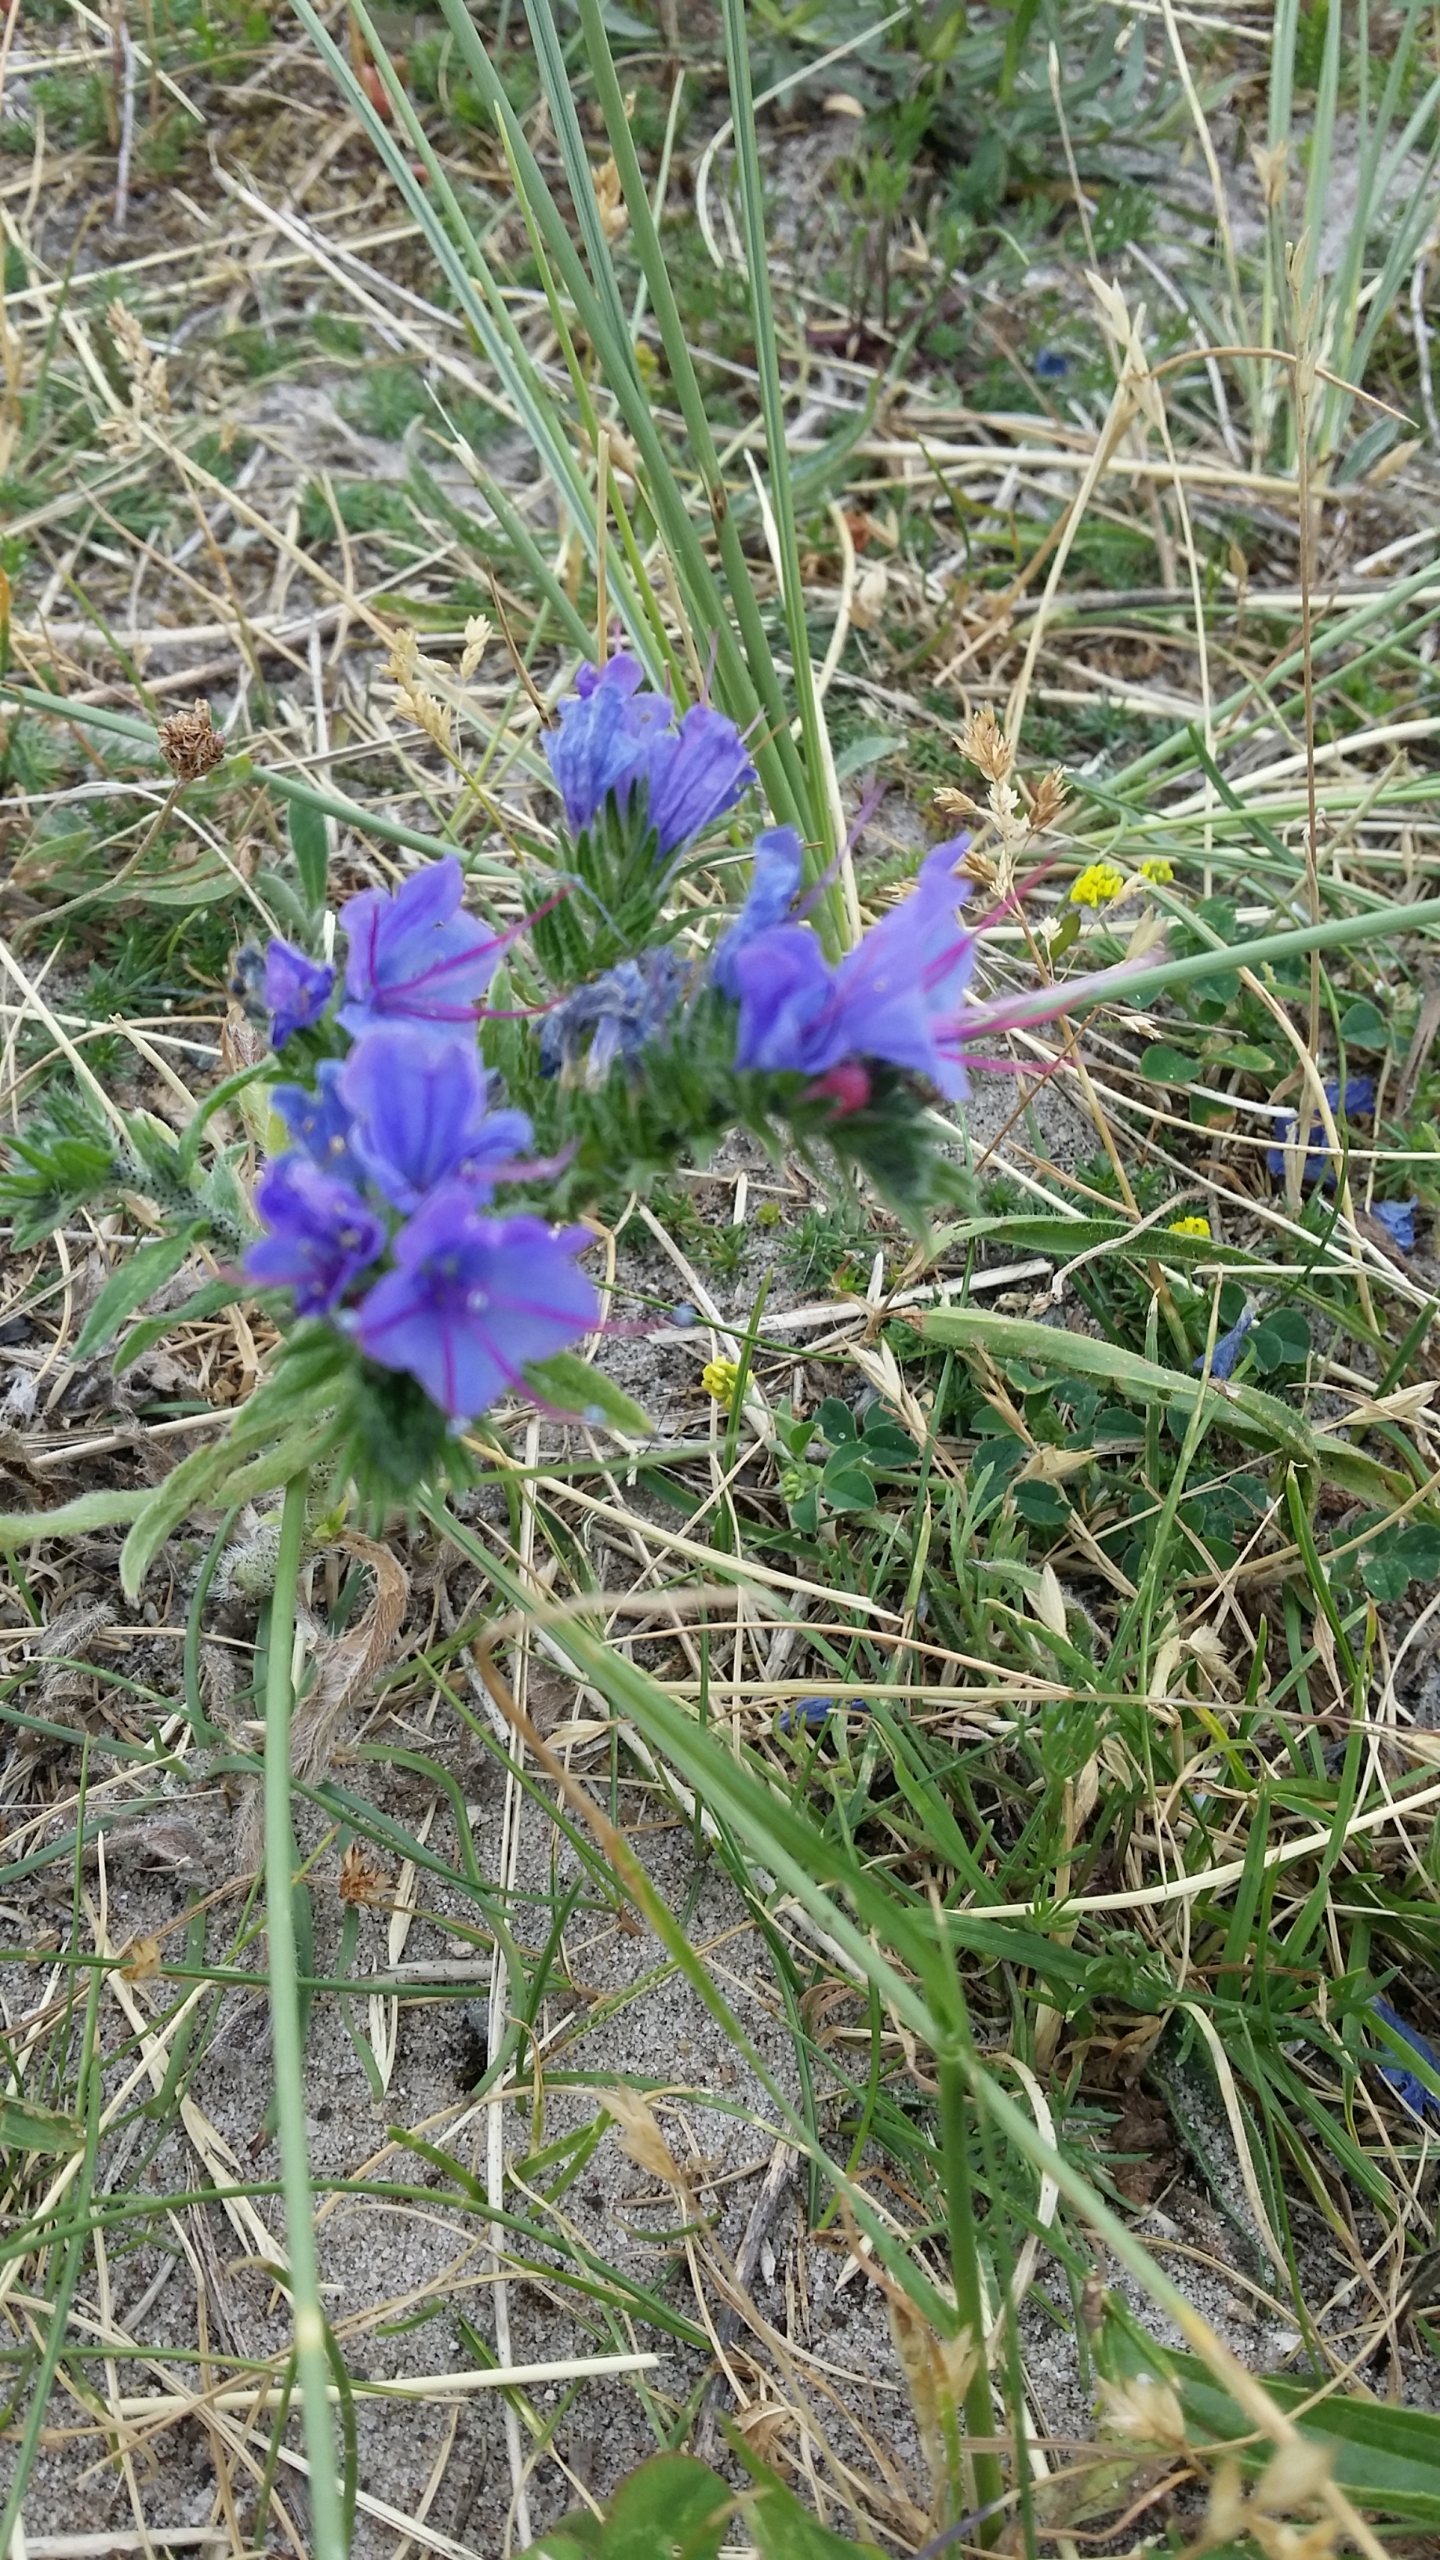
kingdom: Plantae
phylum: Tracheophyta
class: Magnoliopsida
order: Boraginales
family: Boraginaceae
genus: Echium
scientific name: Echium vulgare
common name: Slangehoved
